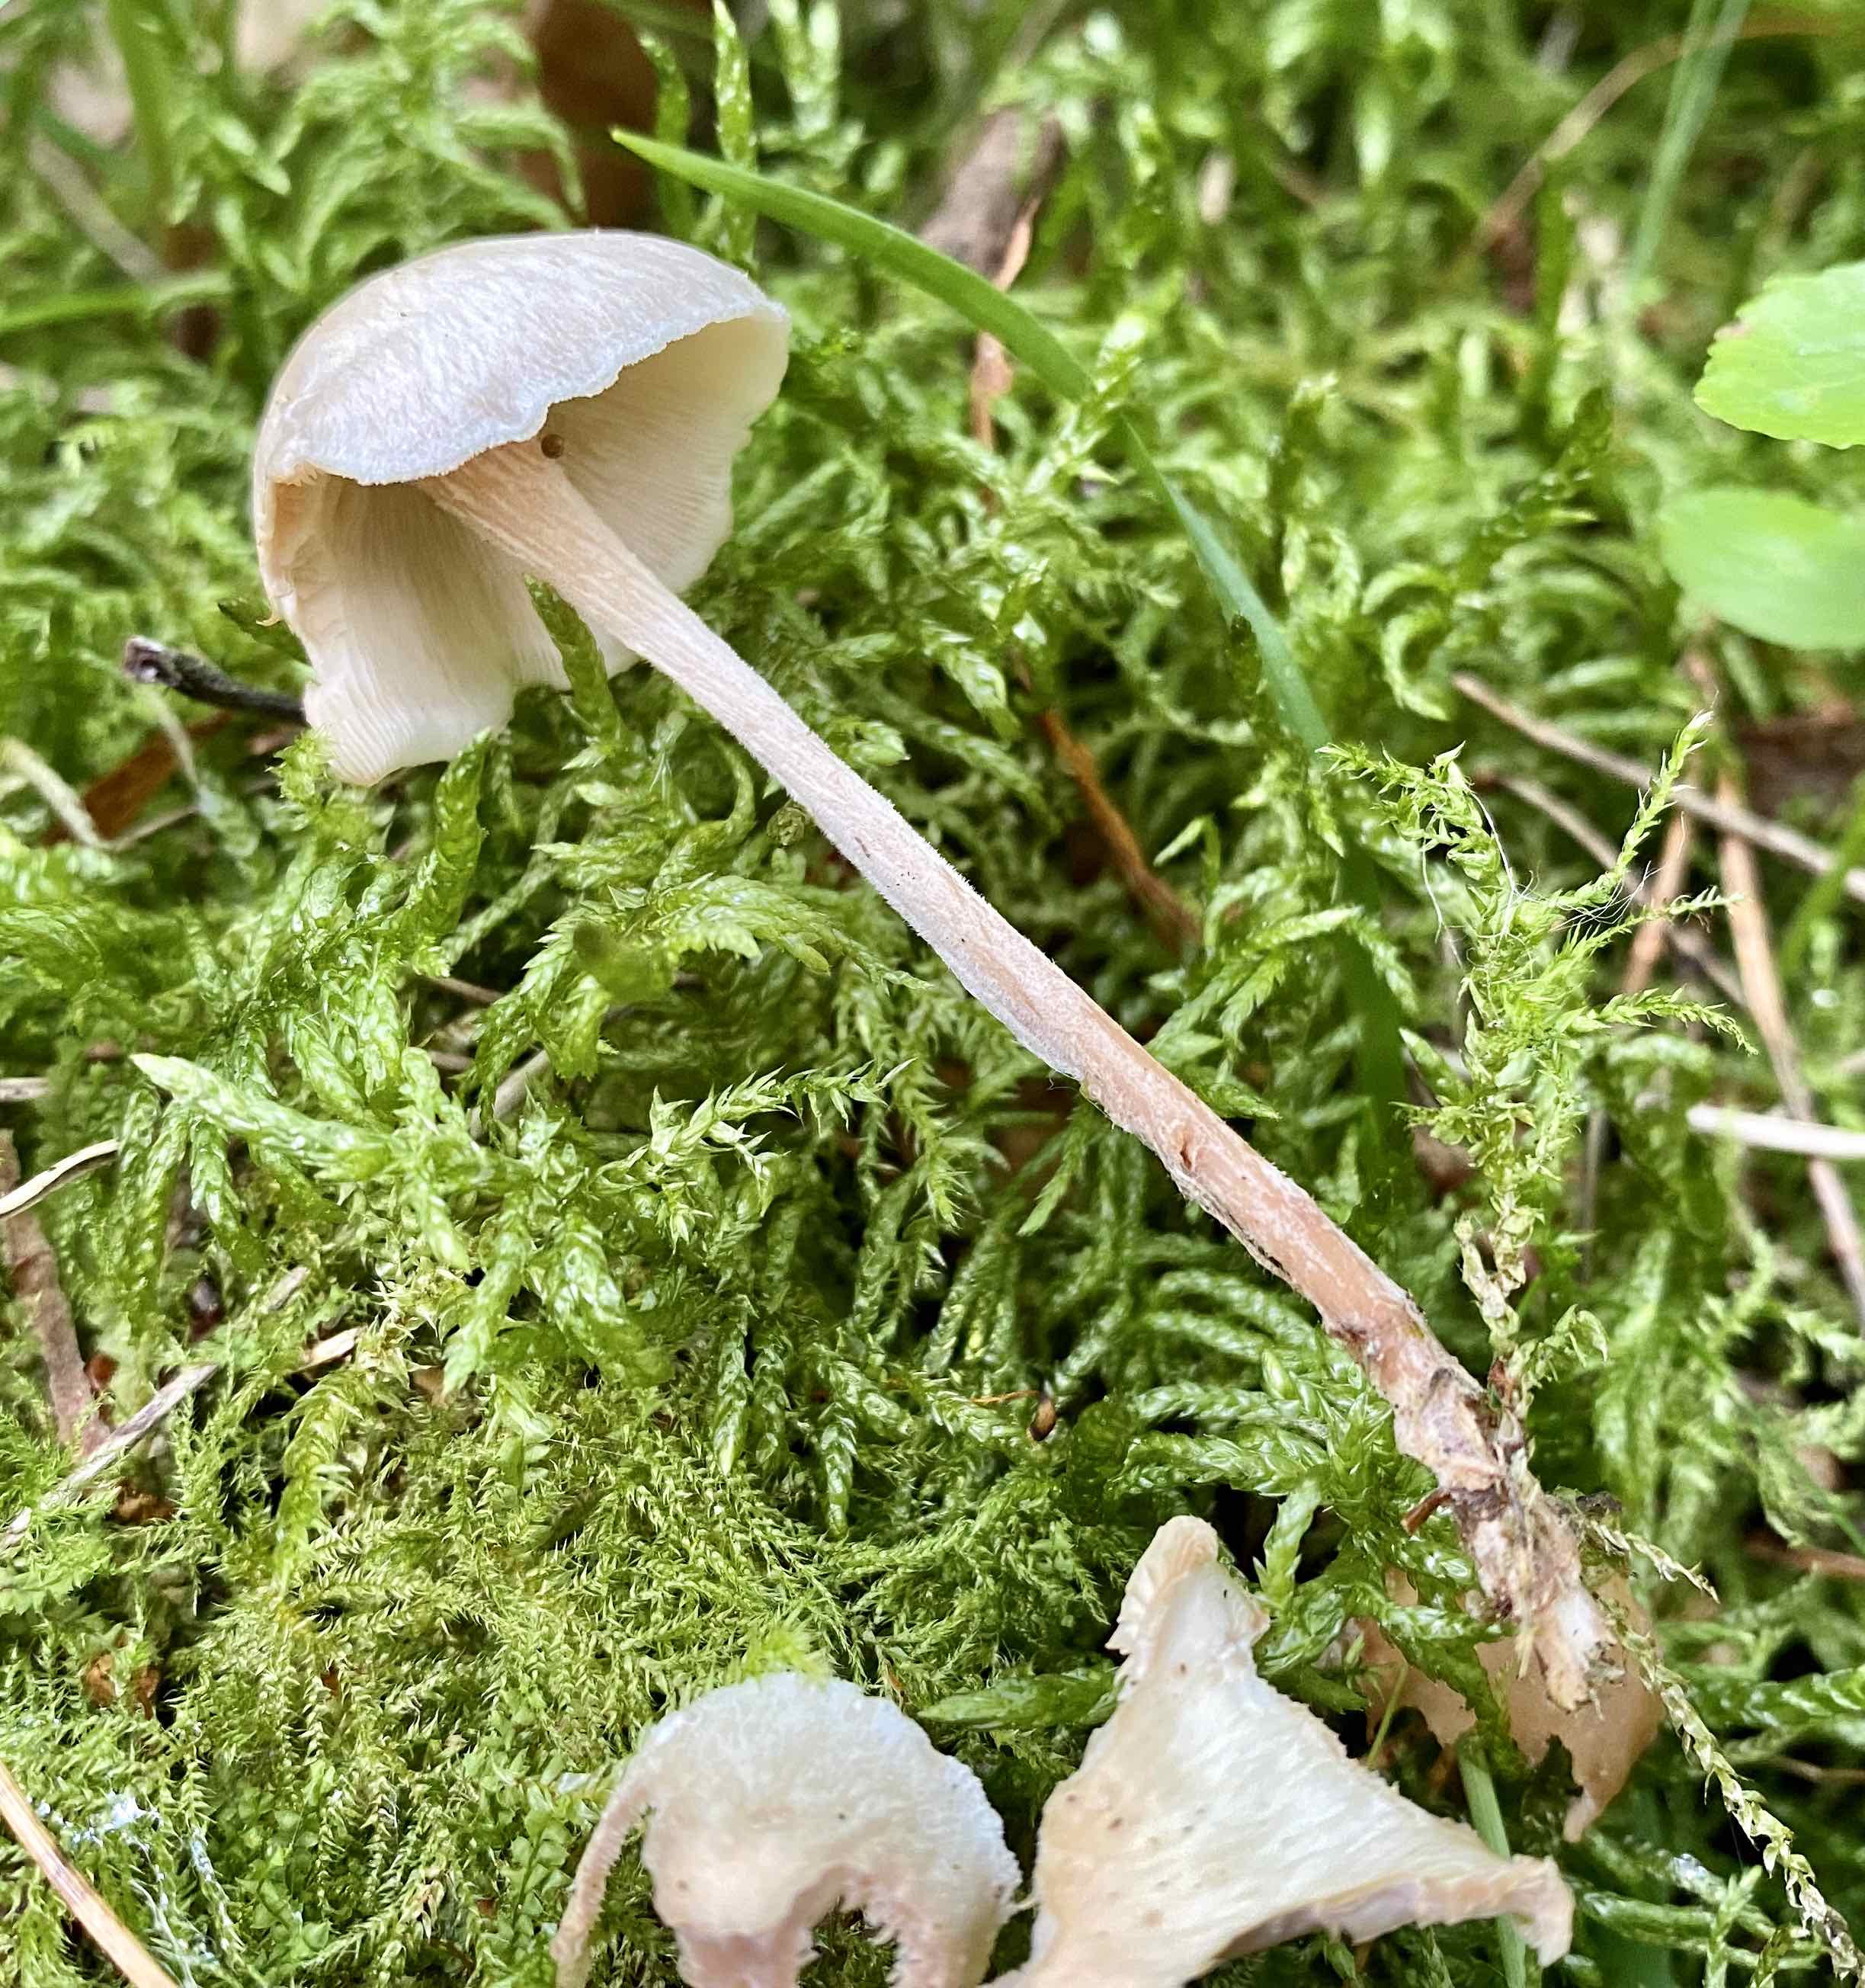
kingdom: Fungi
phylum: Basidiomycota
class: Agaricomycetes
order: Agaricales
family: Omphalotaceae
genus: Collybiopsis
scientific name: Collybiopsis confluens
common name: knippe-fladhat
